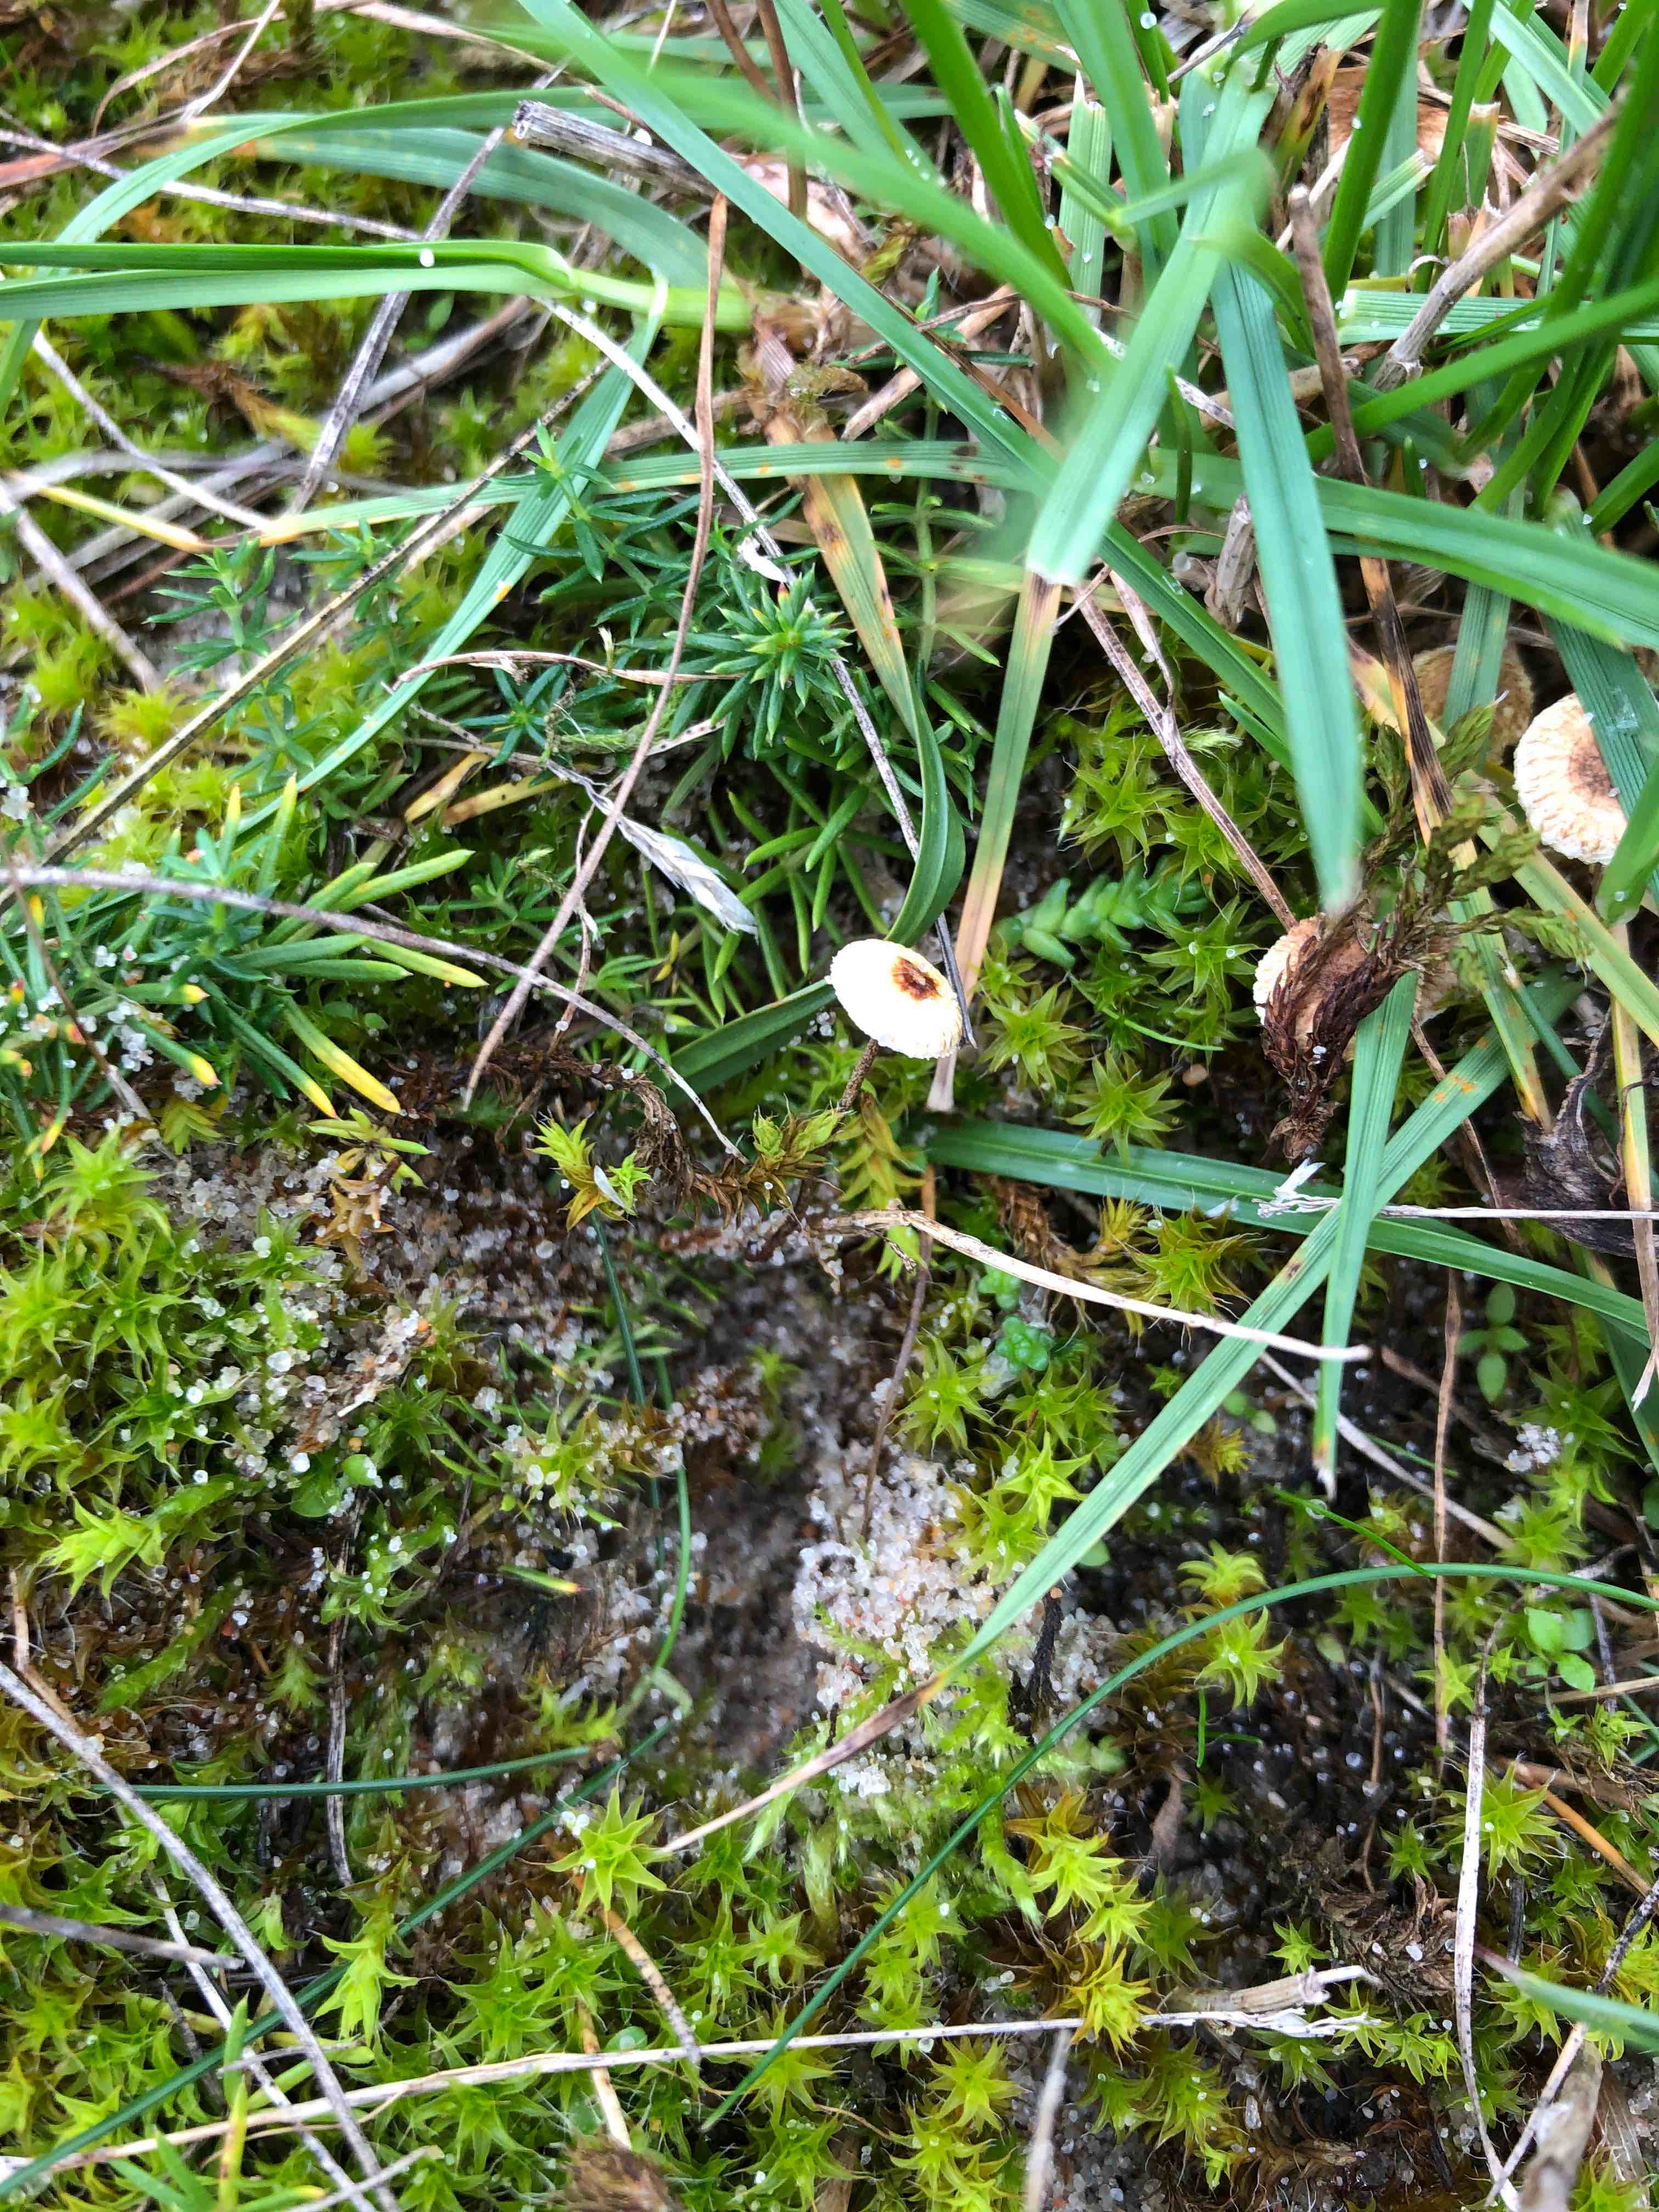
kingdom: Fungi
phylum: Basidiomycota
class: Agaricomycetes
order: Agaricales
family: Marasmiaceae
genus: Crinipellis
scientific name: Crinipellis scabella
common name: børstefod
